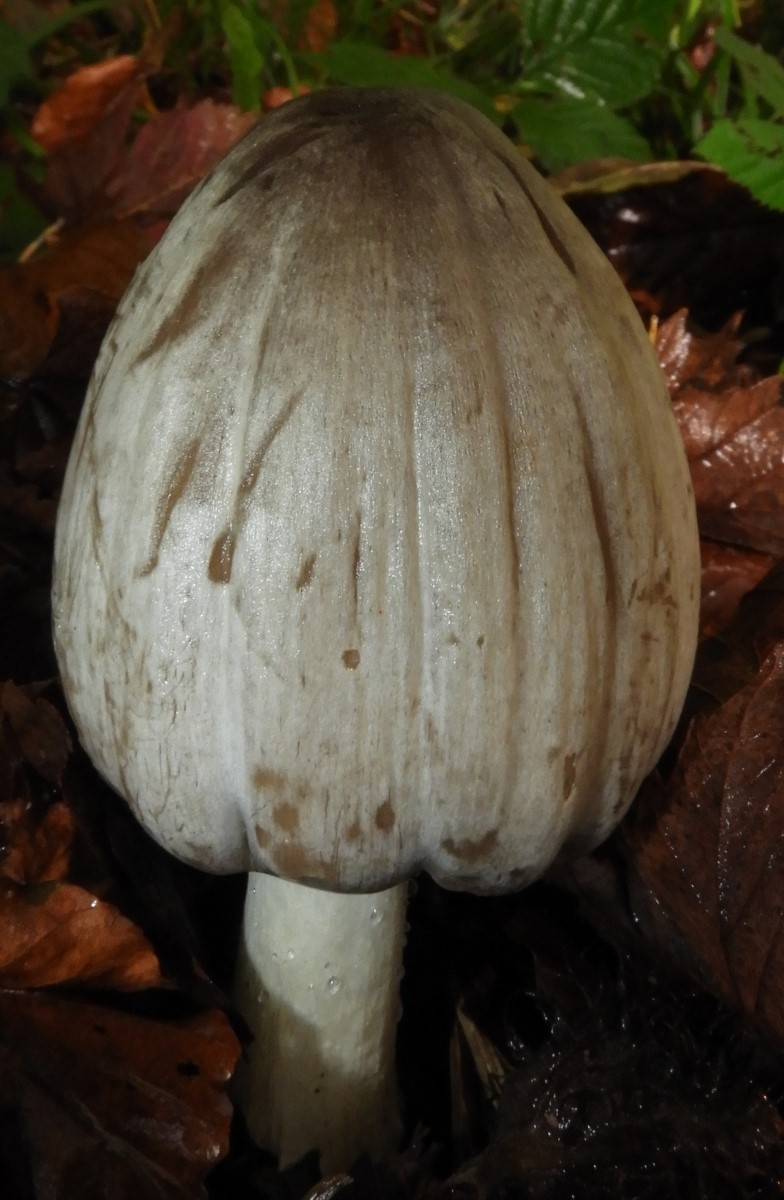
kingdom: Fungi
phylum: Basidiomycota
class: Agaricomycetes
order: Agaricales
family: Psathyrellaceae
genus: Coprinopsis
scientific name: Coprinopsis atramentaria
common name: almindelig blækhat
